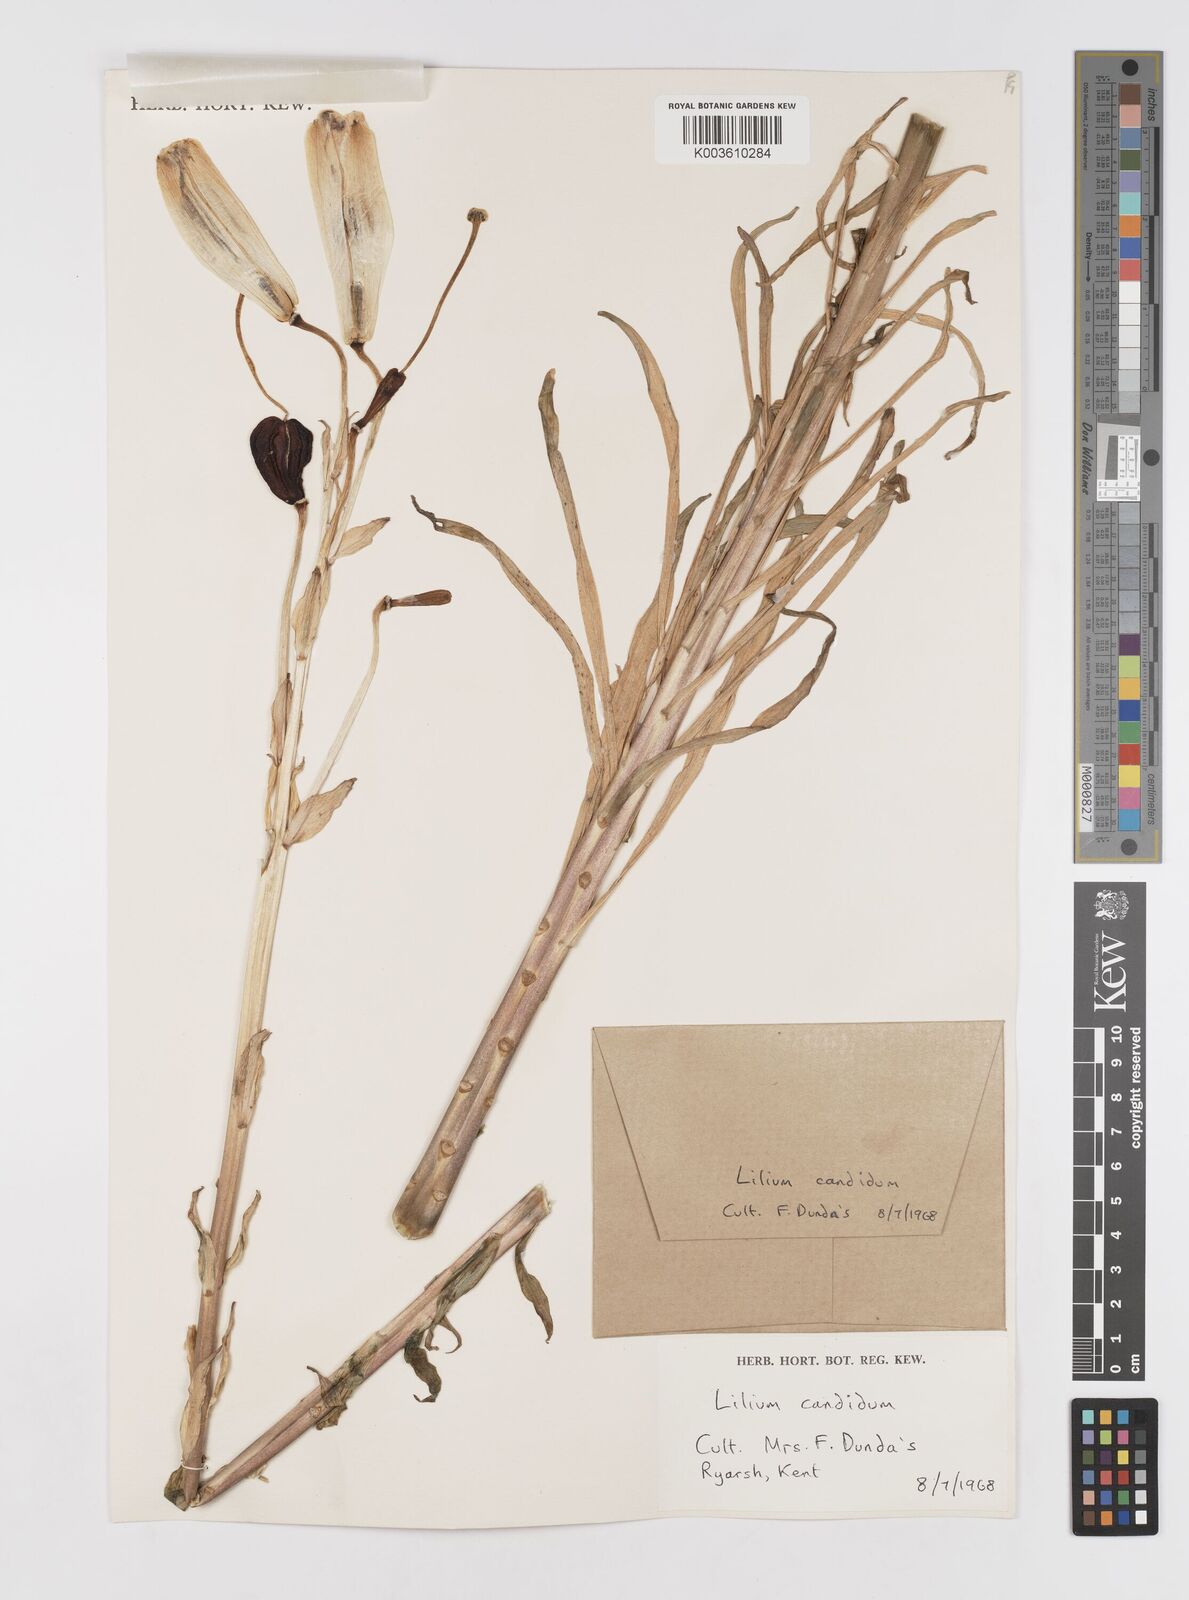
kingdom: Plantae
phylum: Tracheophyta
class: Liliopsida
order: Liliales
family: Liliaceae
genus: Lilium
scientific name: Lilium candidum
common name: Madonna lily
